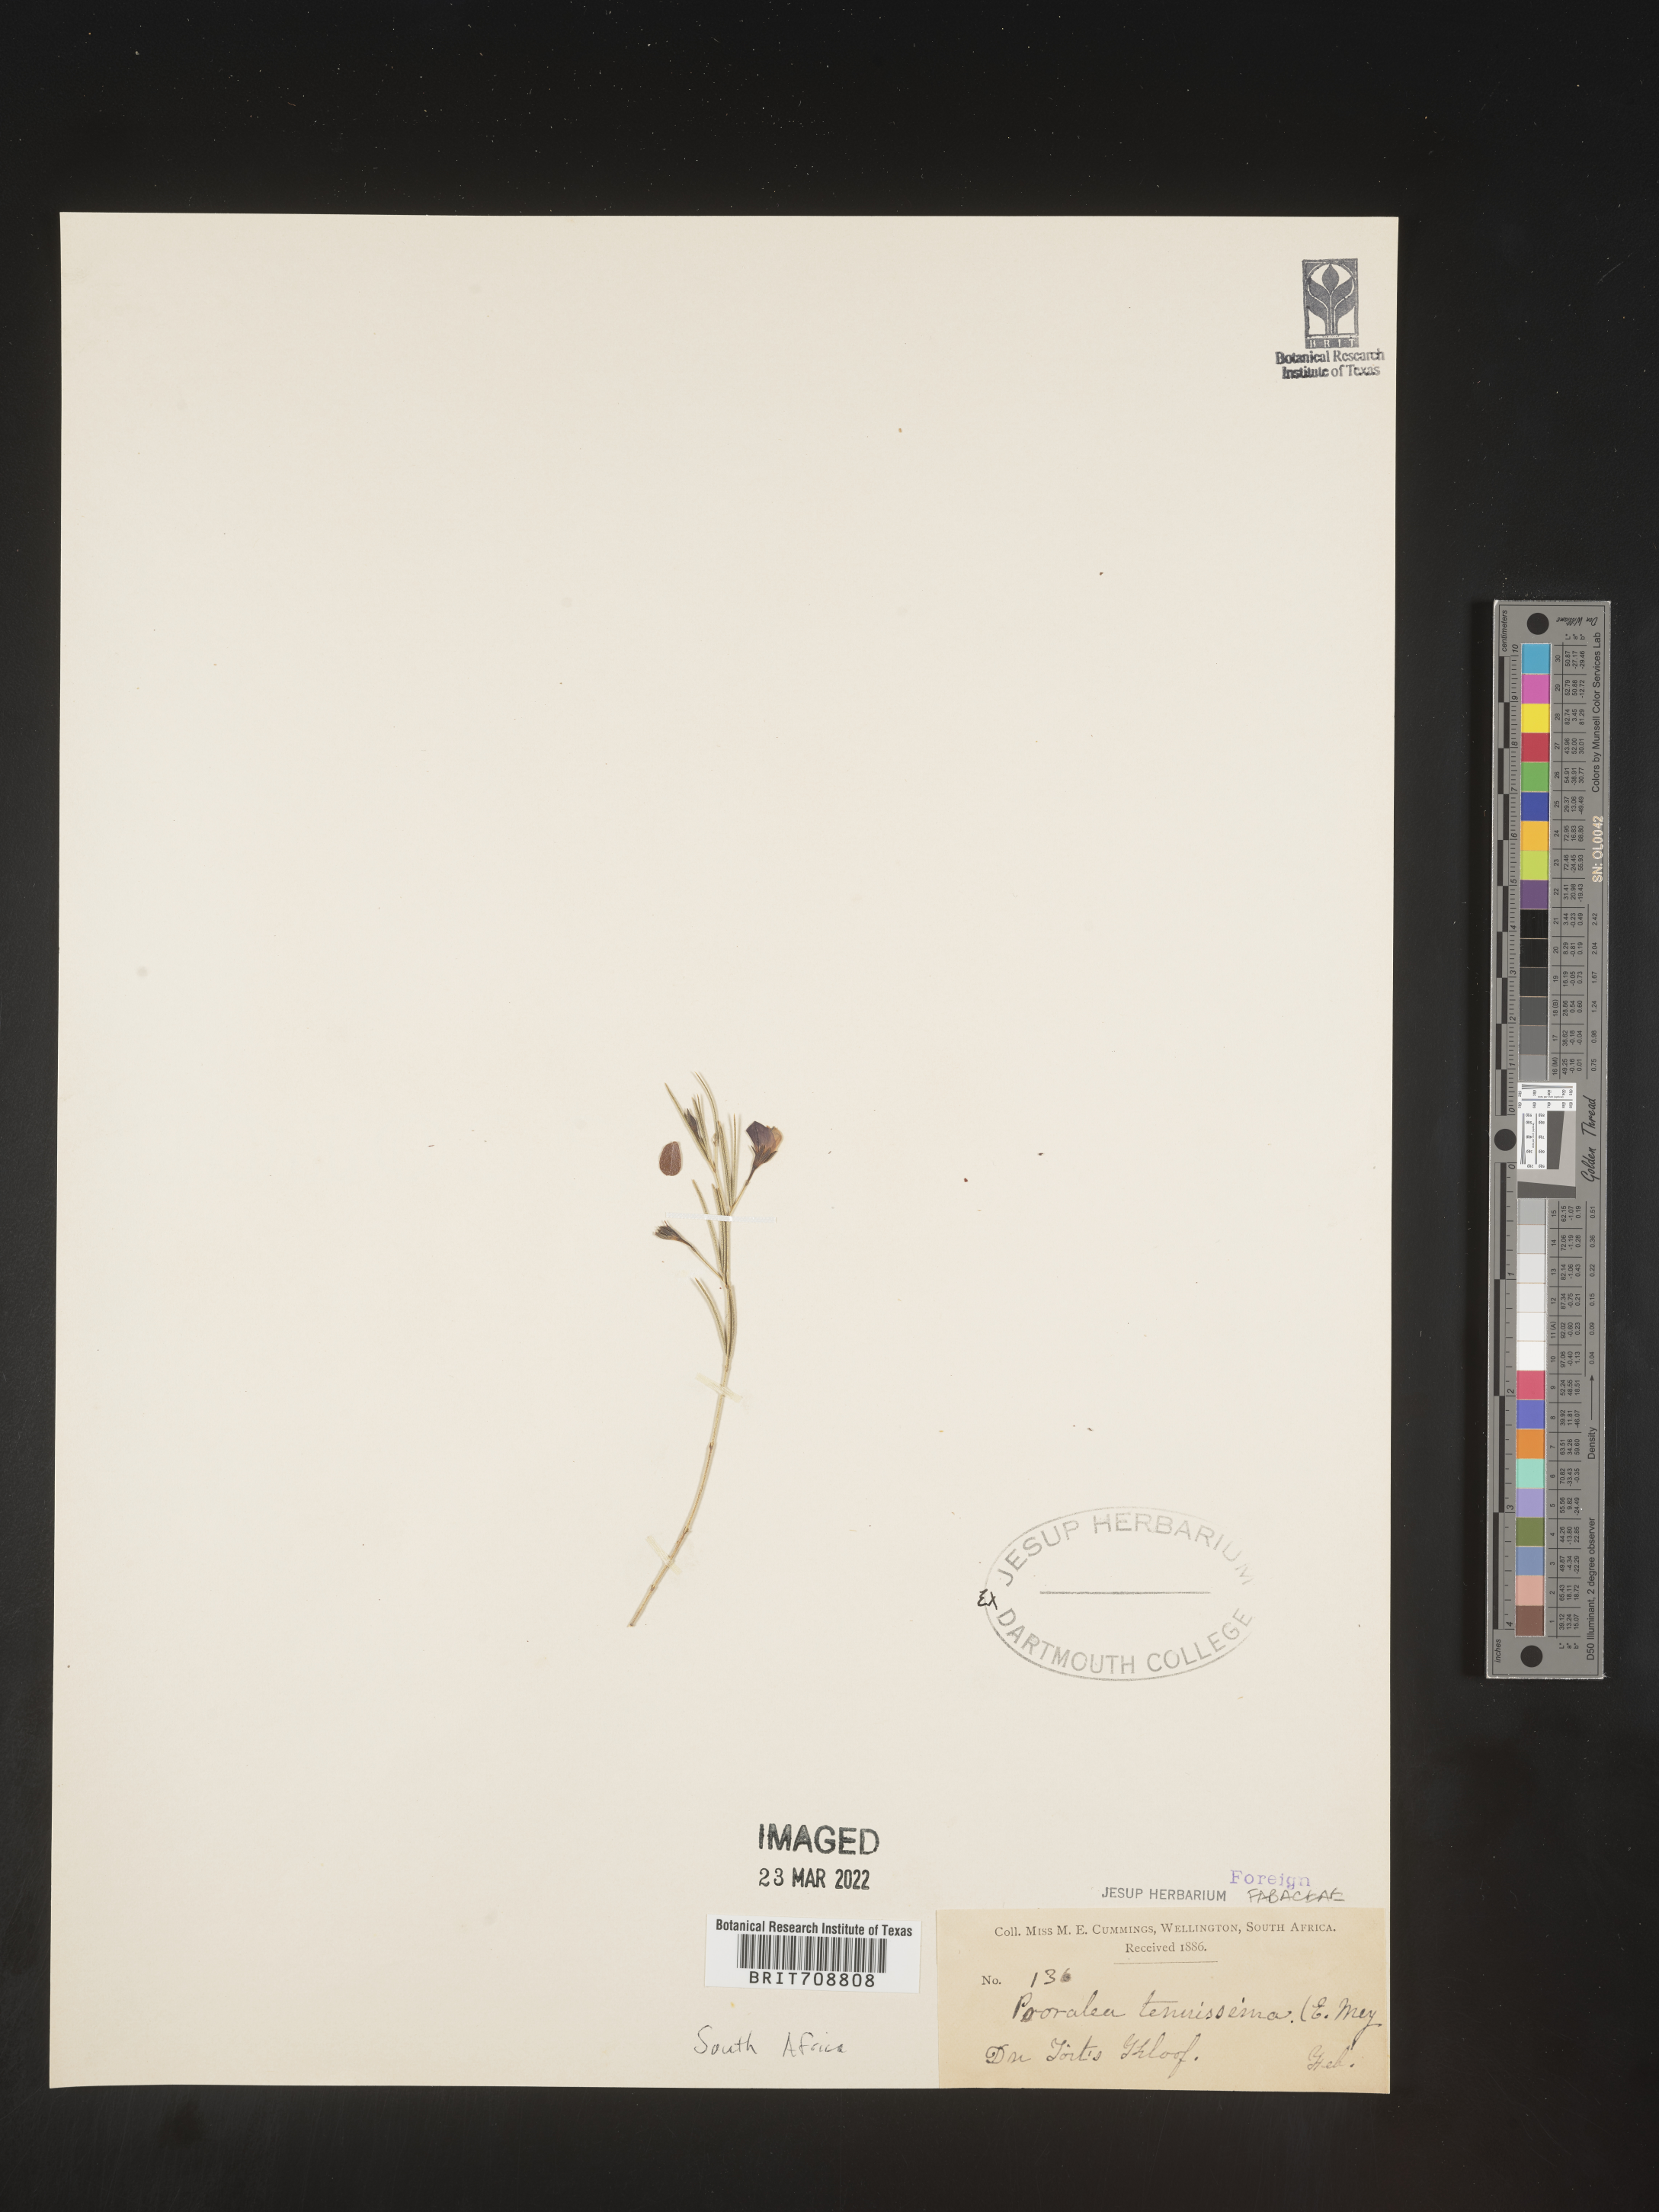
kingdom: Plantae
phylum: Tracheophyta
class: Magnoliopsida
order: Fabales
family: Fabaceae
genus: Psoralea
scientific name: Psoralea
